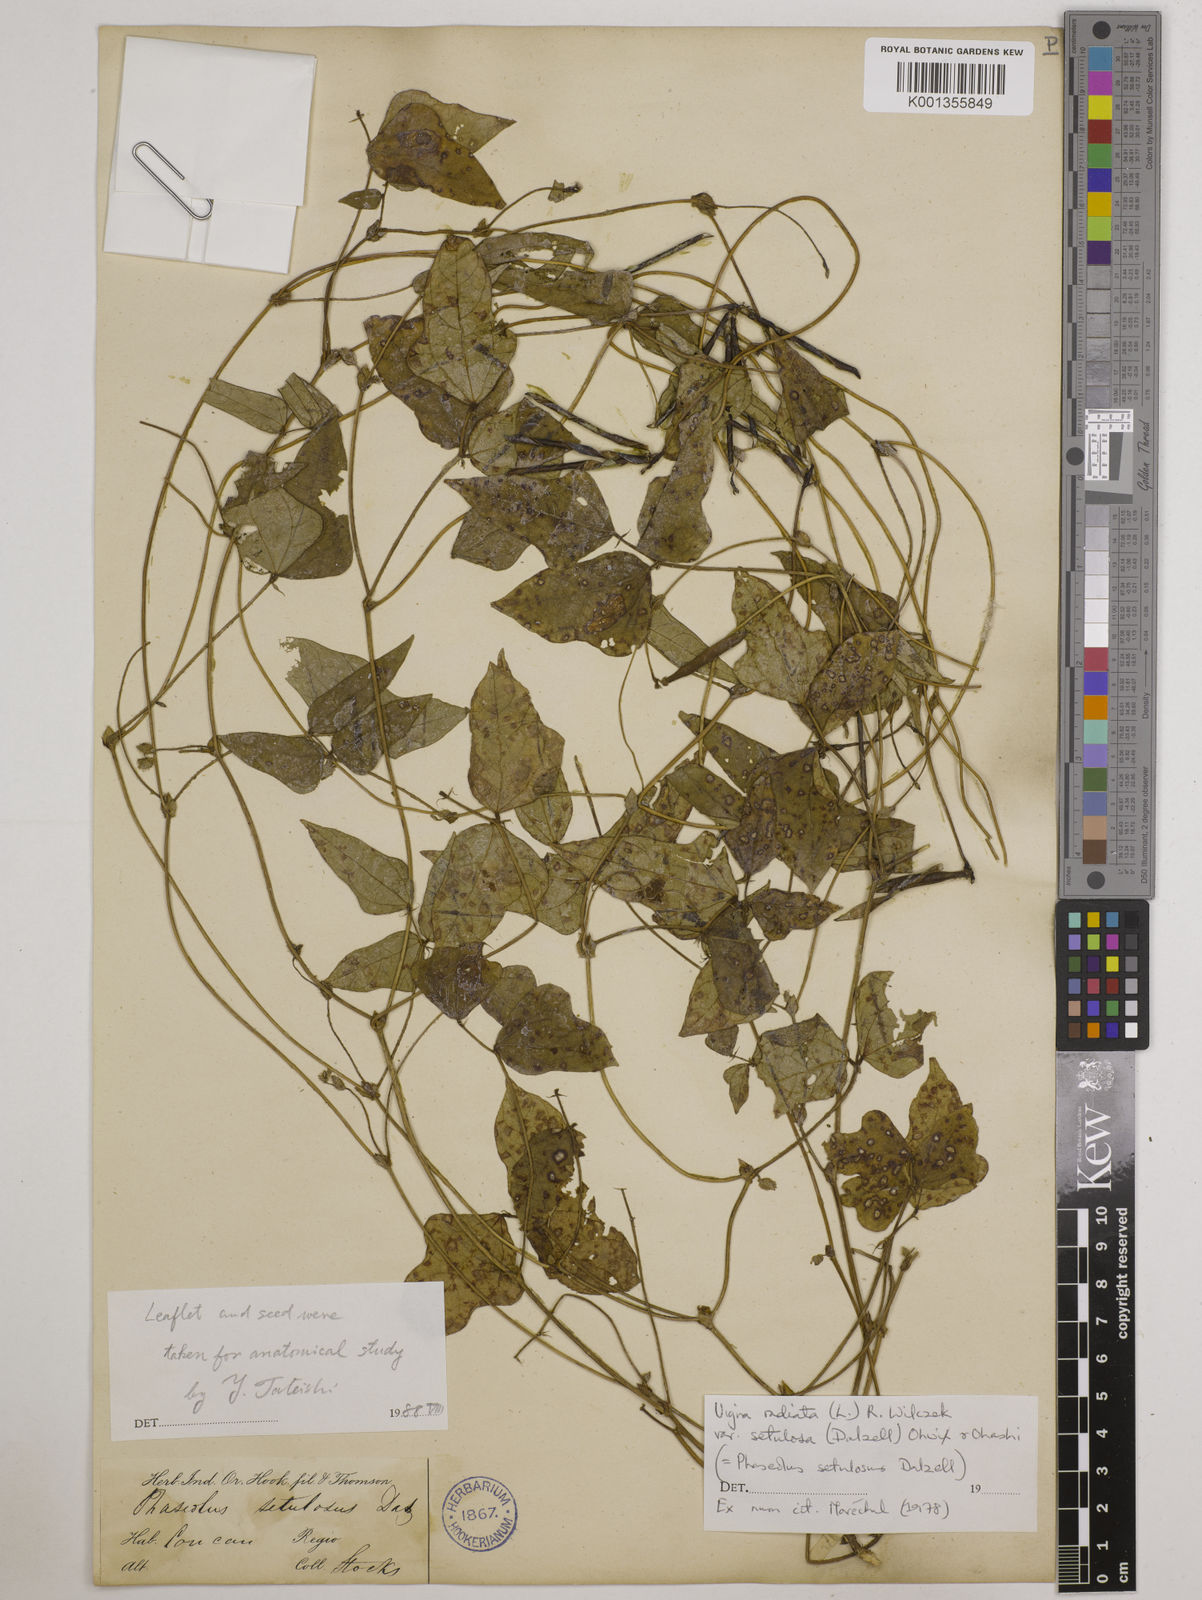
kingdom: Plantae
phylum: Tracheophyta
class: Magnoliopsida
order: Fabales
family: Fabaceae
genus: Vigna
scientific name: Vigna radiata
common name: Mung-bean
